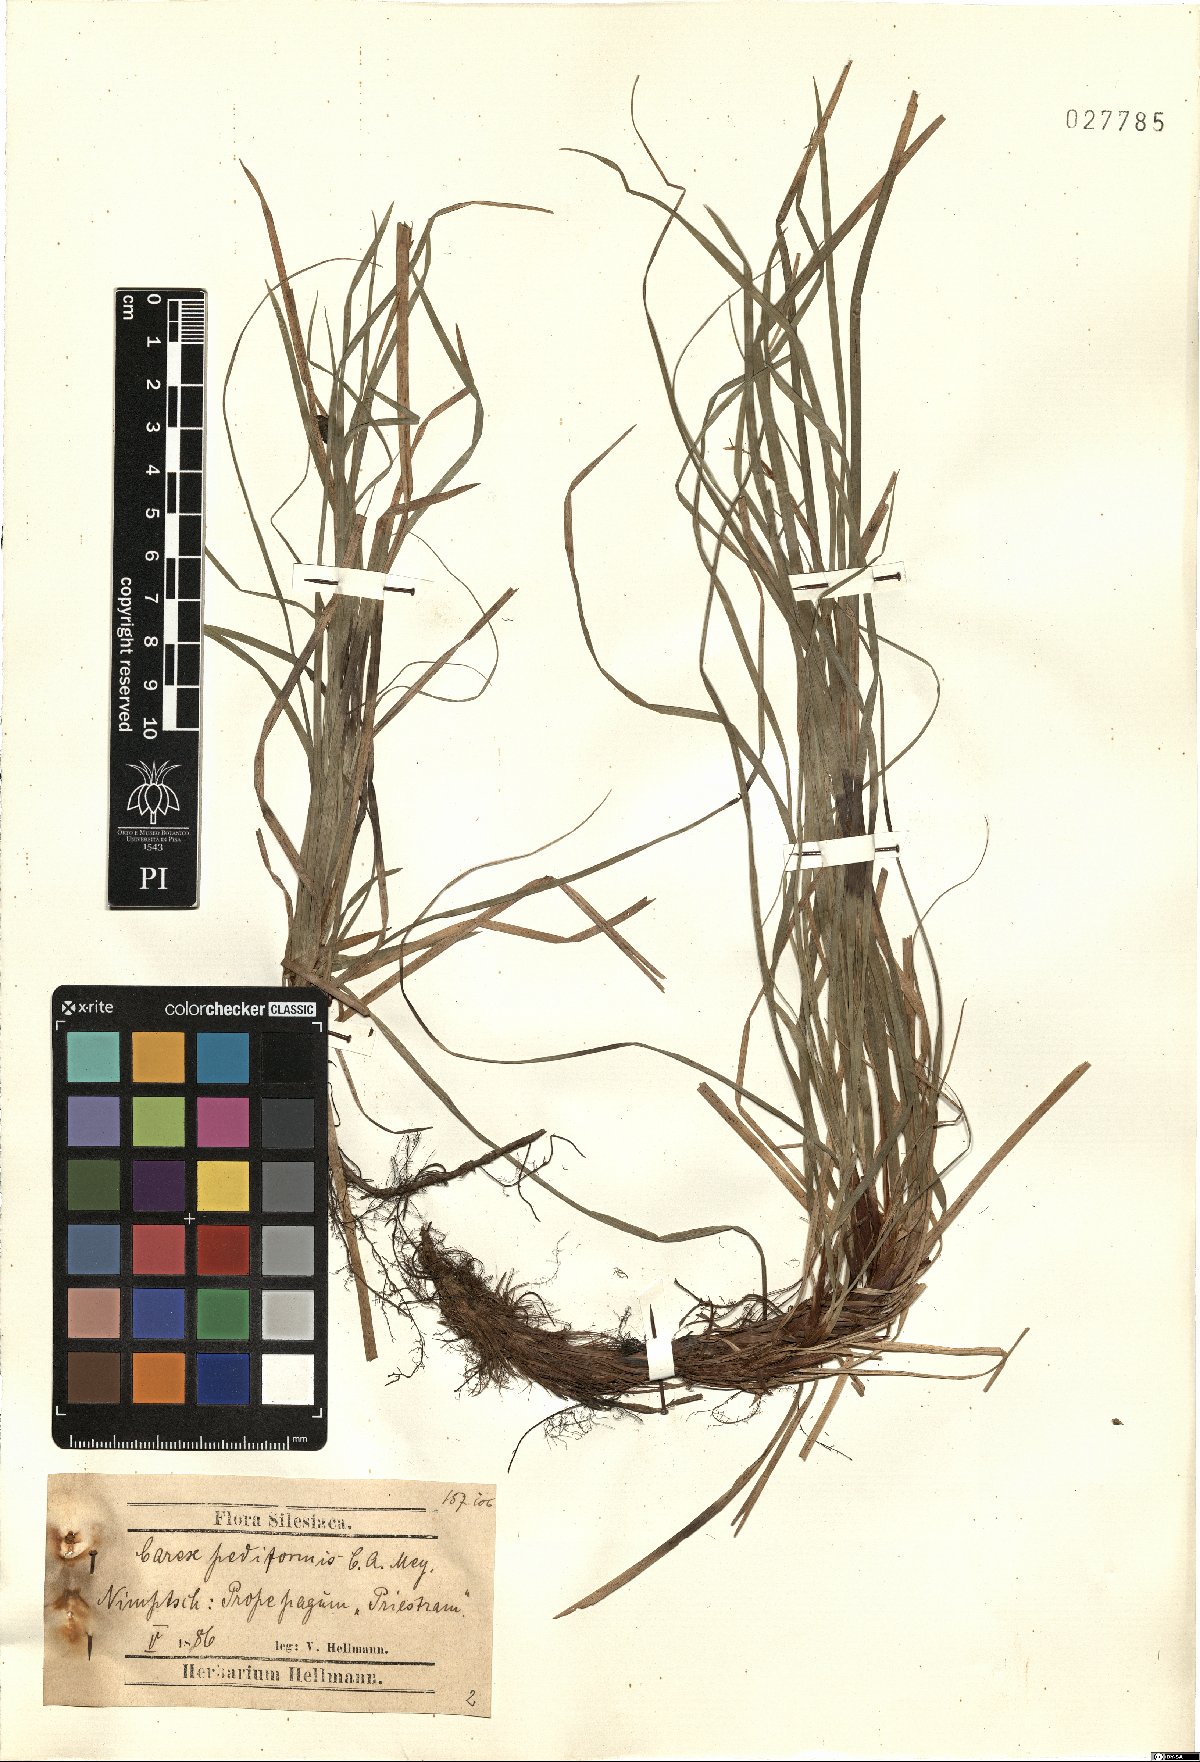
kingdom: Plantae
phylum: Tracheophyta
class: Liliopsida
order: Poales
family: Cyperaceae
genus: Carex
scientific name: Carex pediformis
